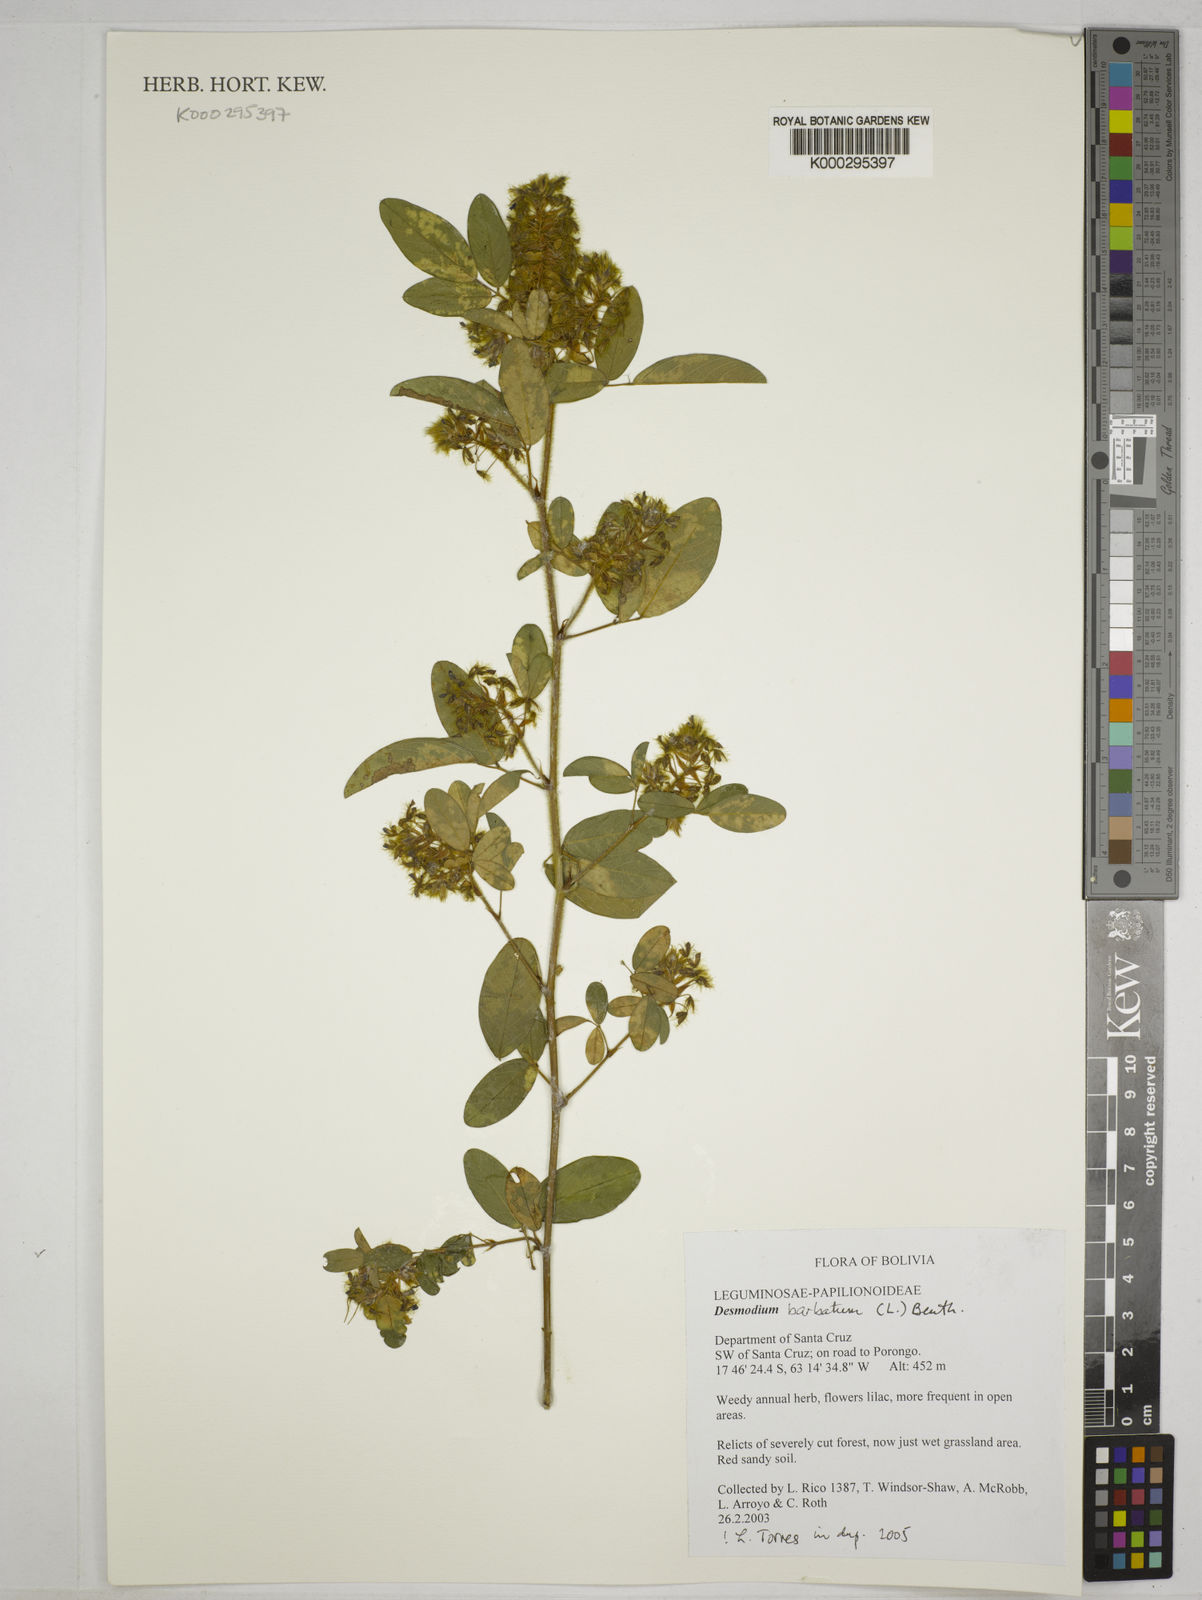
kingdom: Plantae
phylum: Tracheophyta
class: Magnoliopsida
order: Fabales
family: Fabaceae
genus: Desmodium
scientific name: Desmodium
